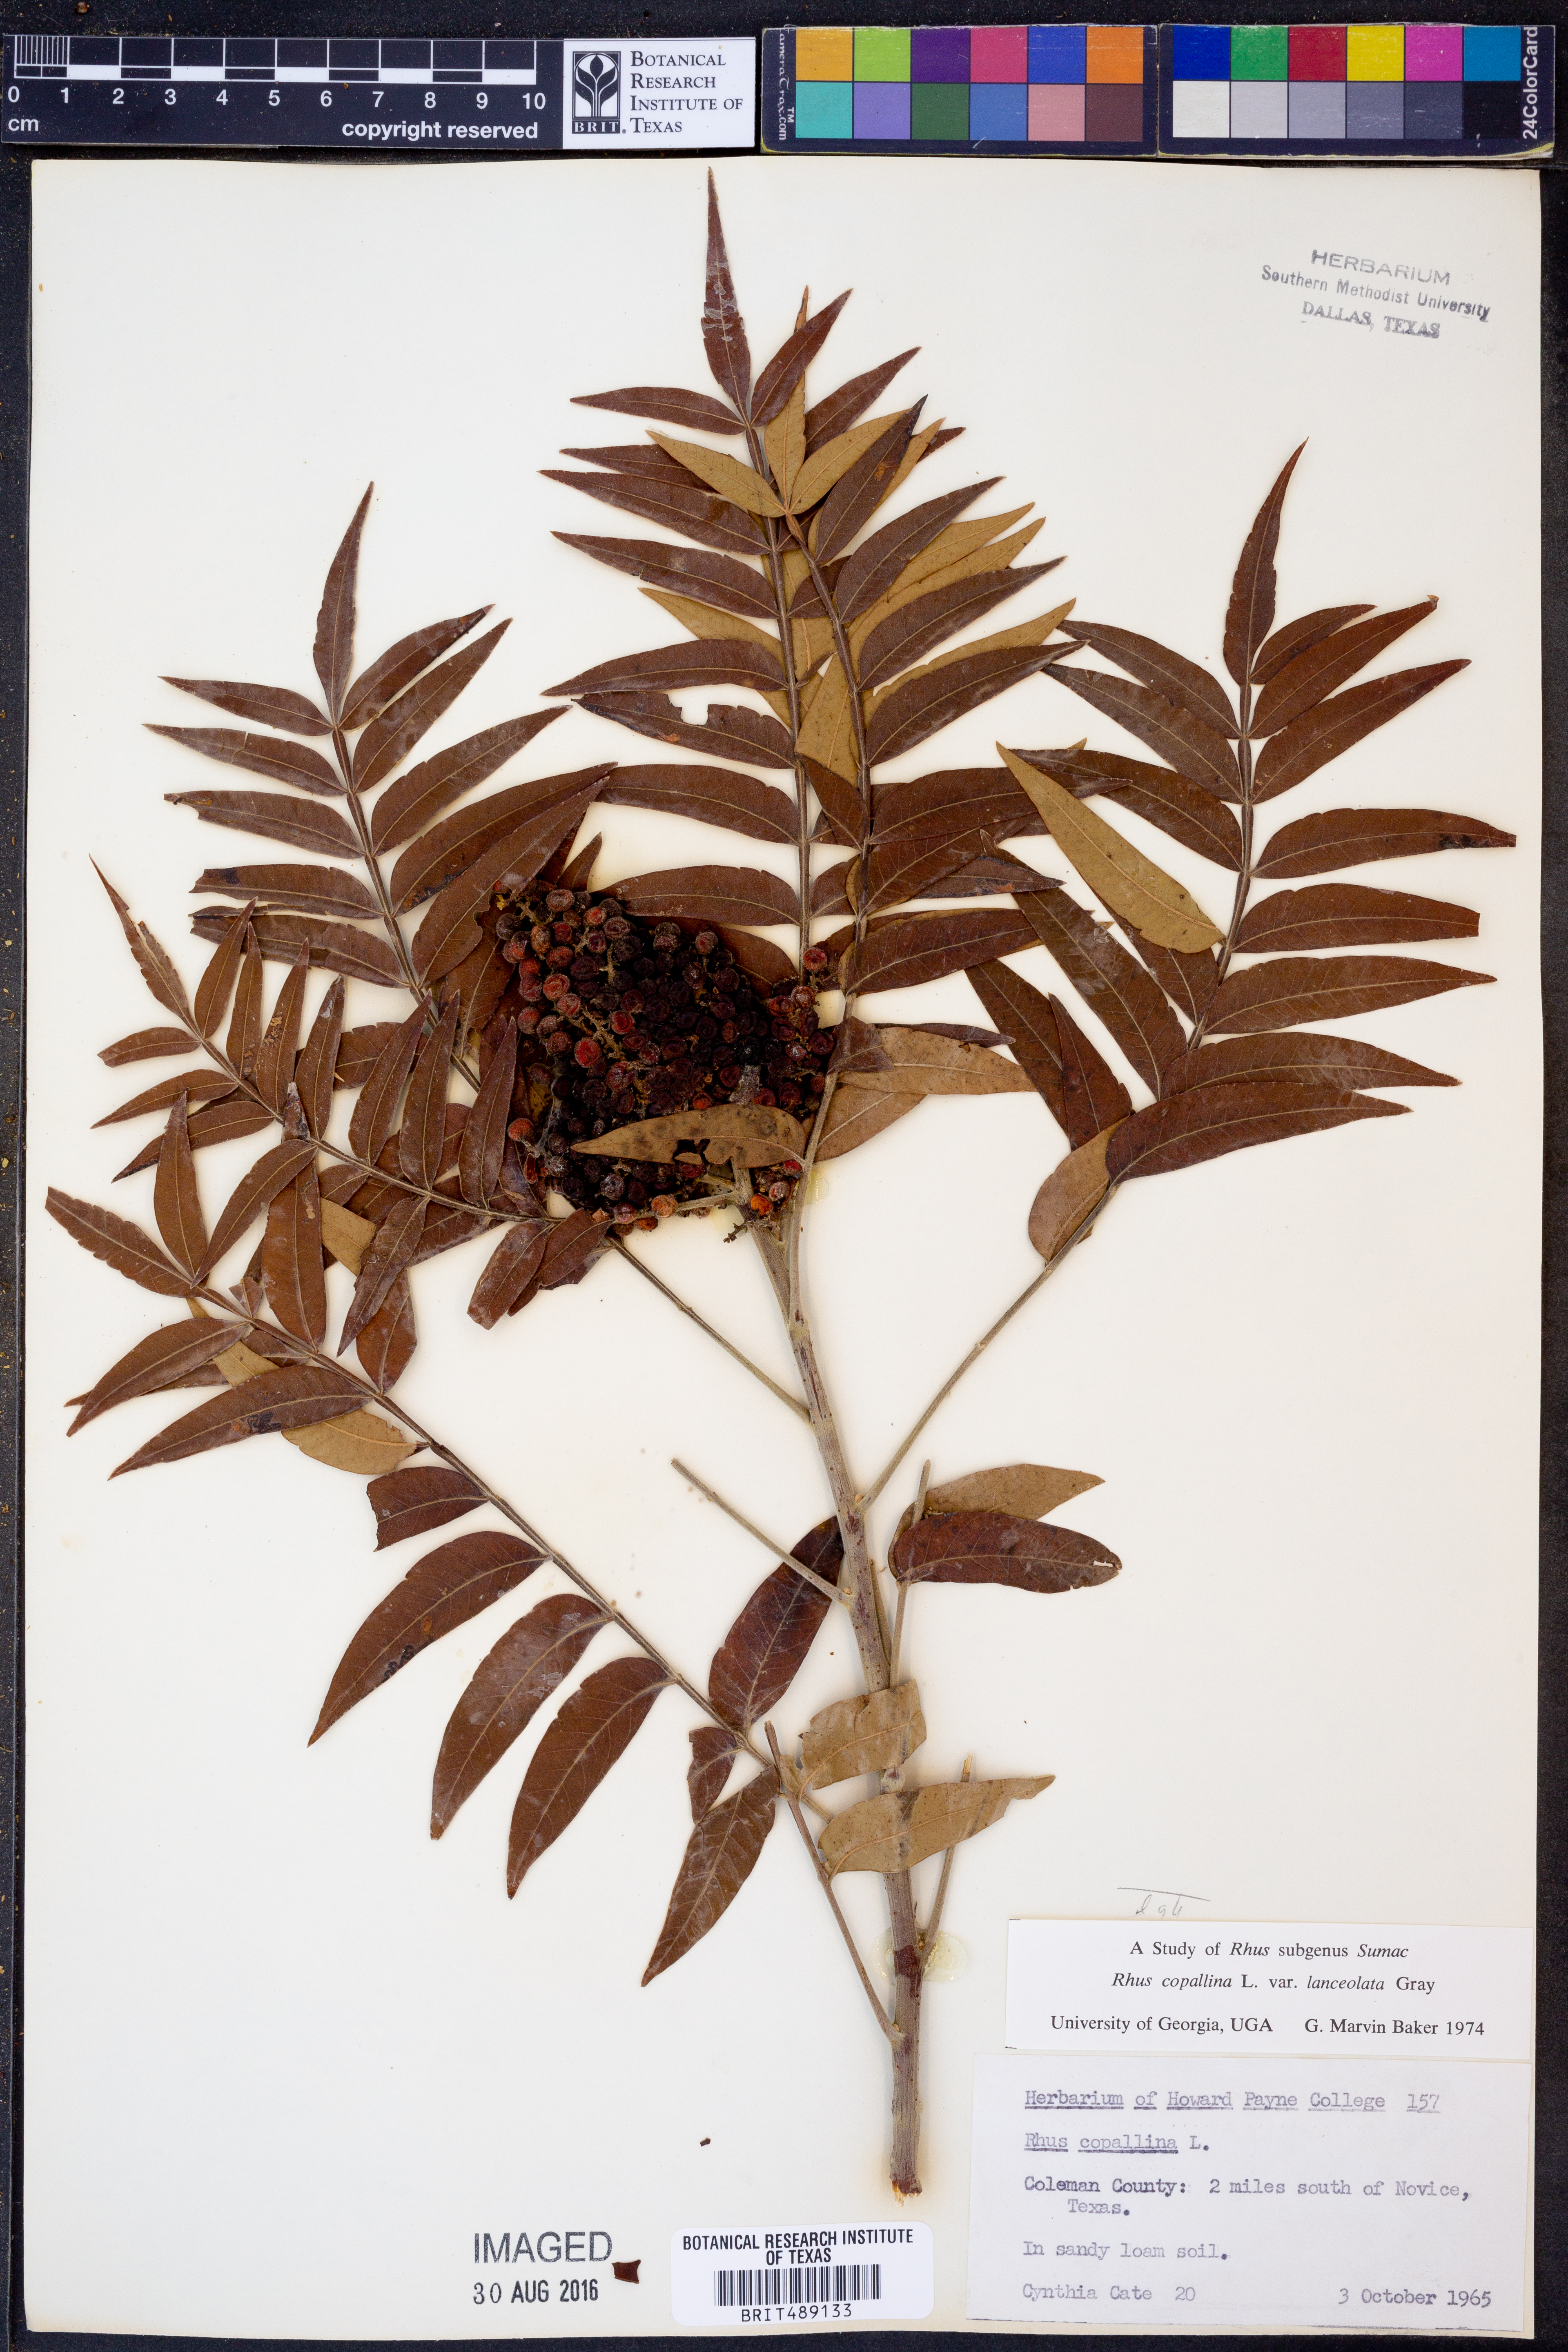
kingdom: Plantae
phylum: Tracheophyta
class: Magnoliopsida
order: Sapindales
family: Anacardiaceae
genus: Rhus
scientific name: Rhus lanceolata
